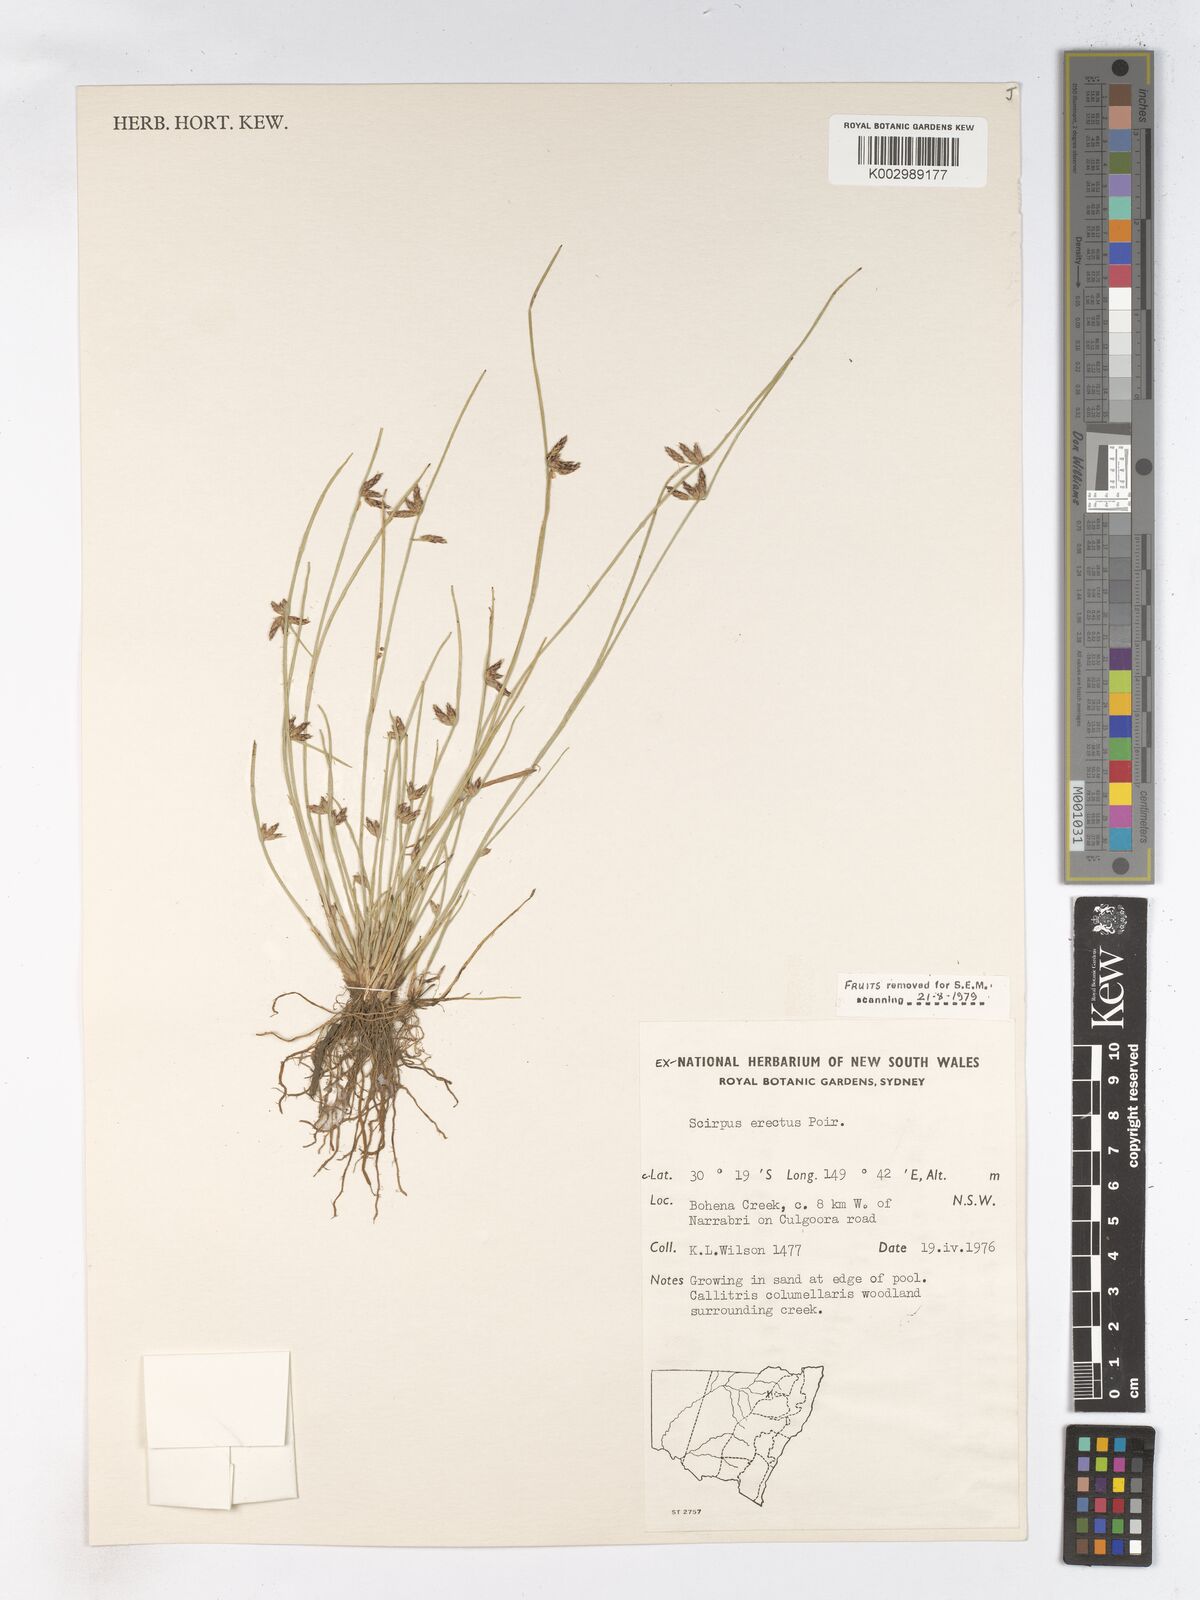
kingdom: Plantae
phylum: Tracheophyta
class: Liliopsida
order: Poales
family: Cyperaceae
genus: Schoenoplectiella
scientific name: Schoenoplectiella erecta
